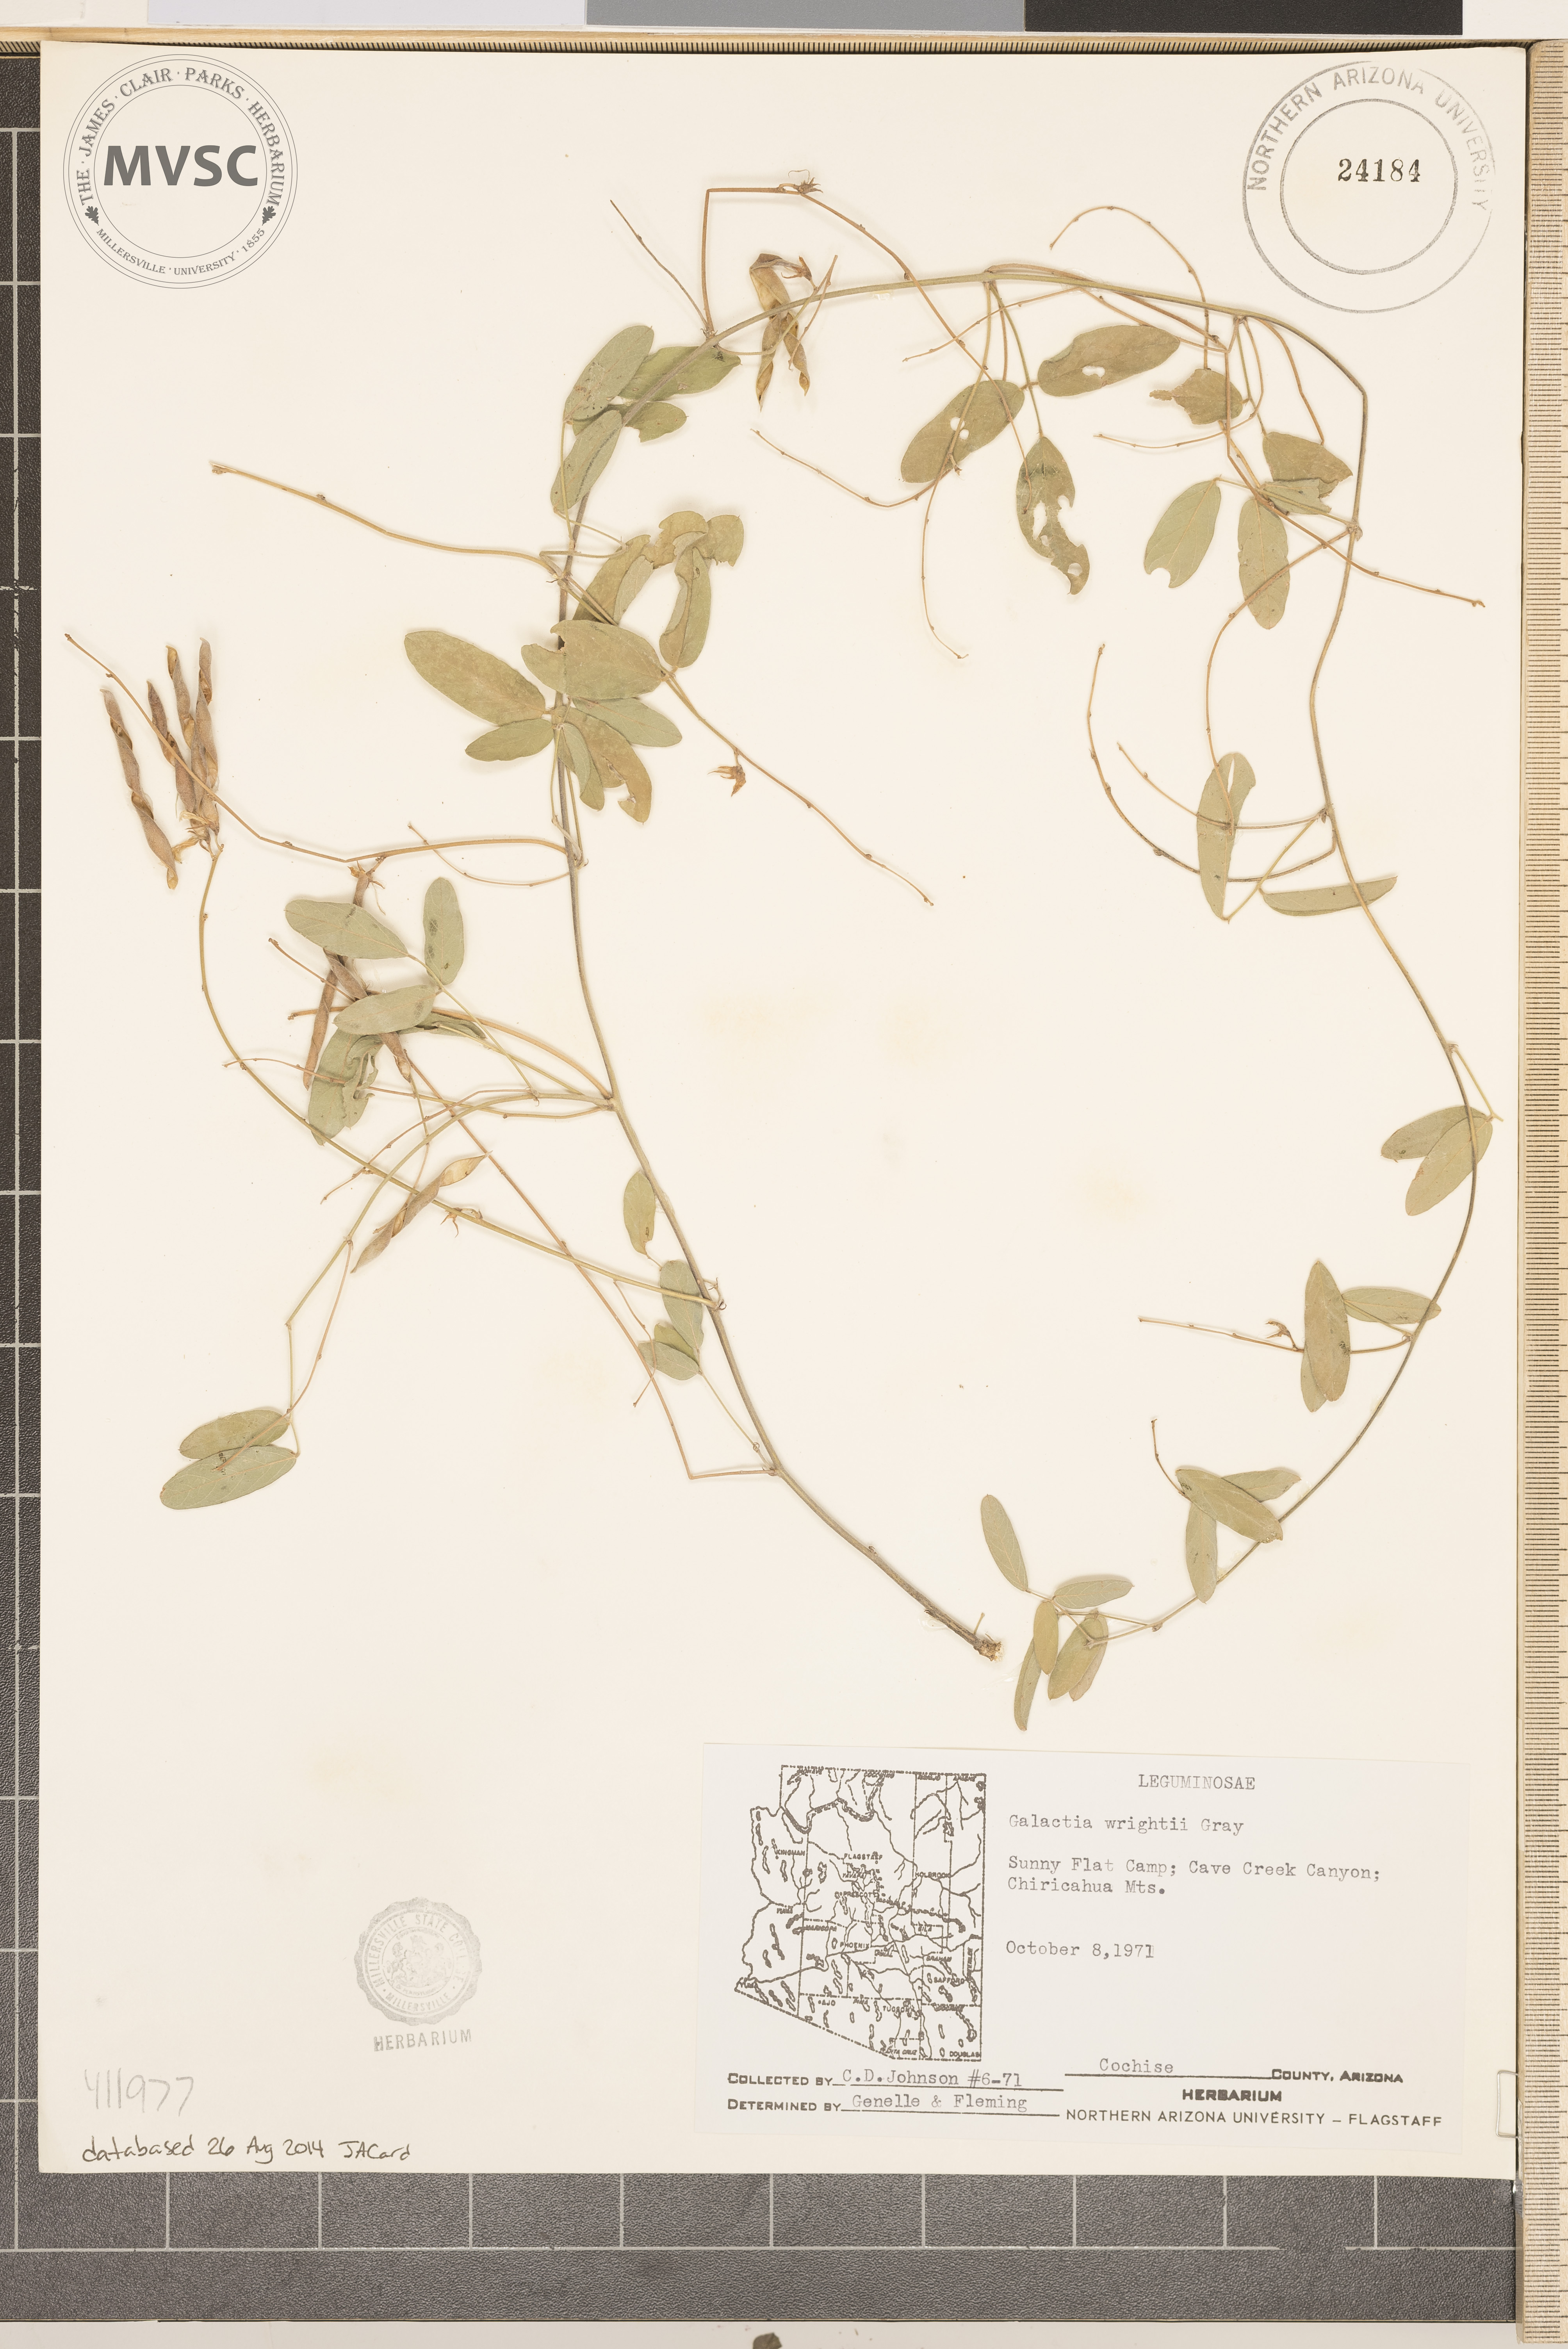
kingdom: Plantae
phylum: Tracheophyta
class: Magnoliopsida
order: Fabales
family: Fabaceae
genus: Galactia
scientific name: Galactia wrightii
